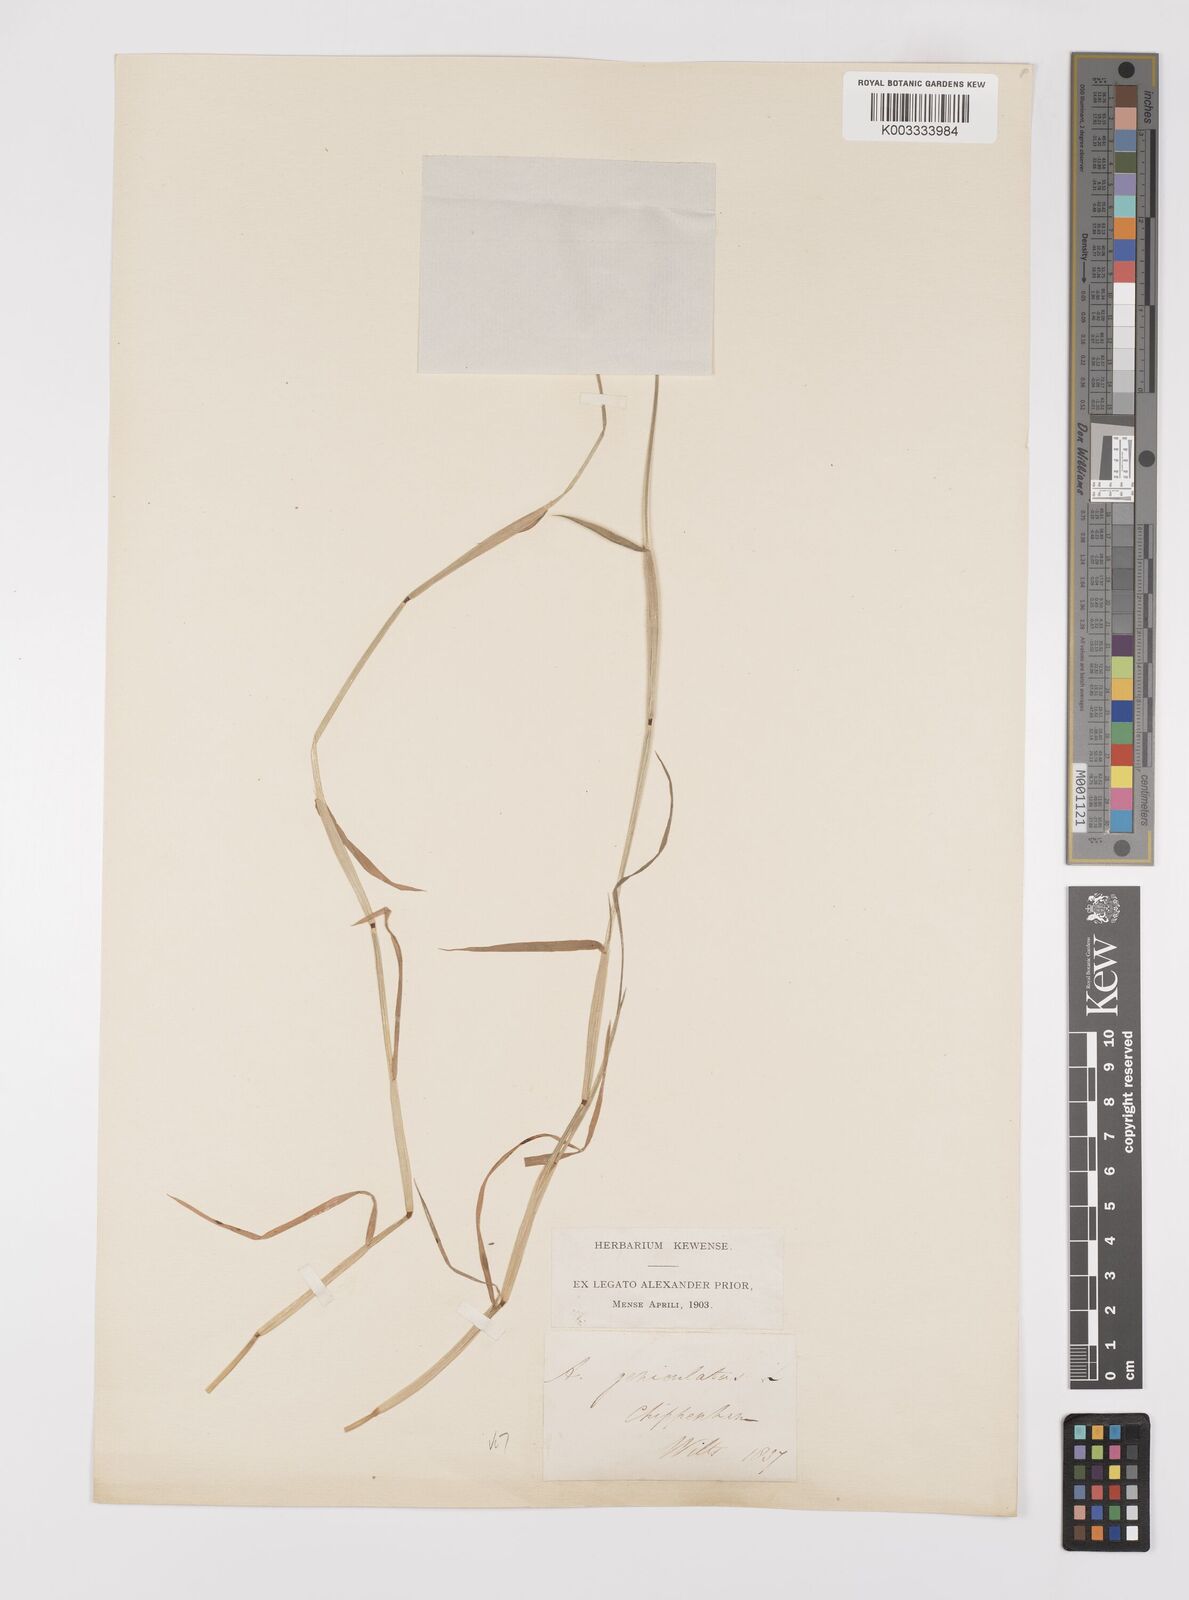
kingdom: Plantae
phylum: Tracheophyta
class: Liliopsida
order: Poales
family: Poaceae
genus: Alopecurus
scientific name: Alopecurus geniculatus
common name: Water foxtail
